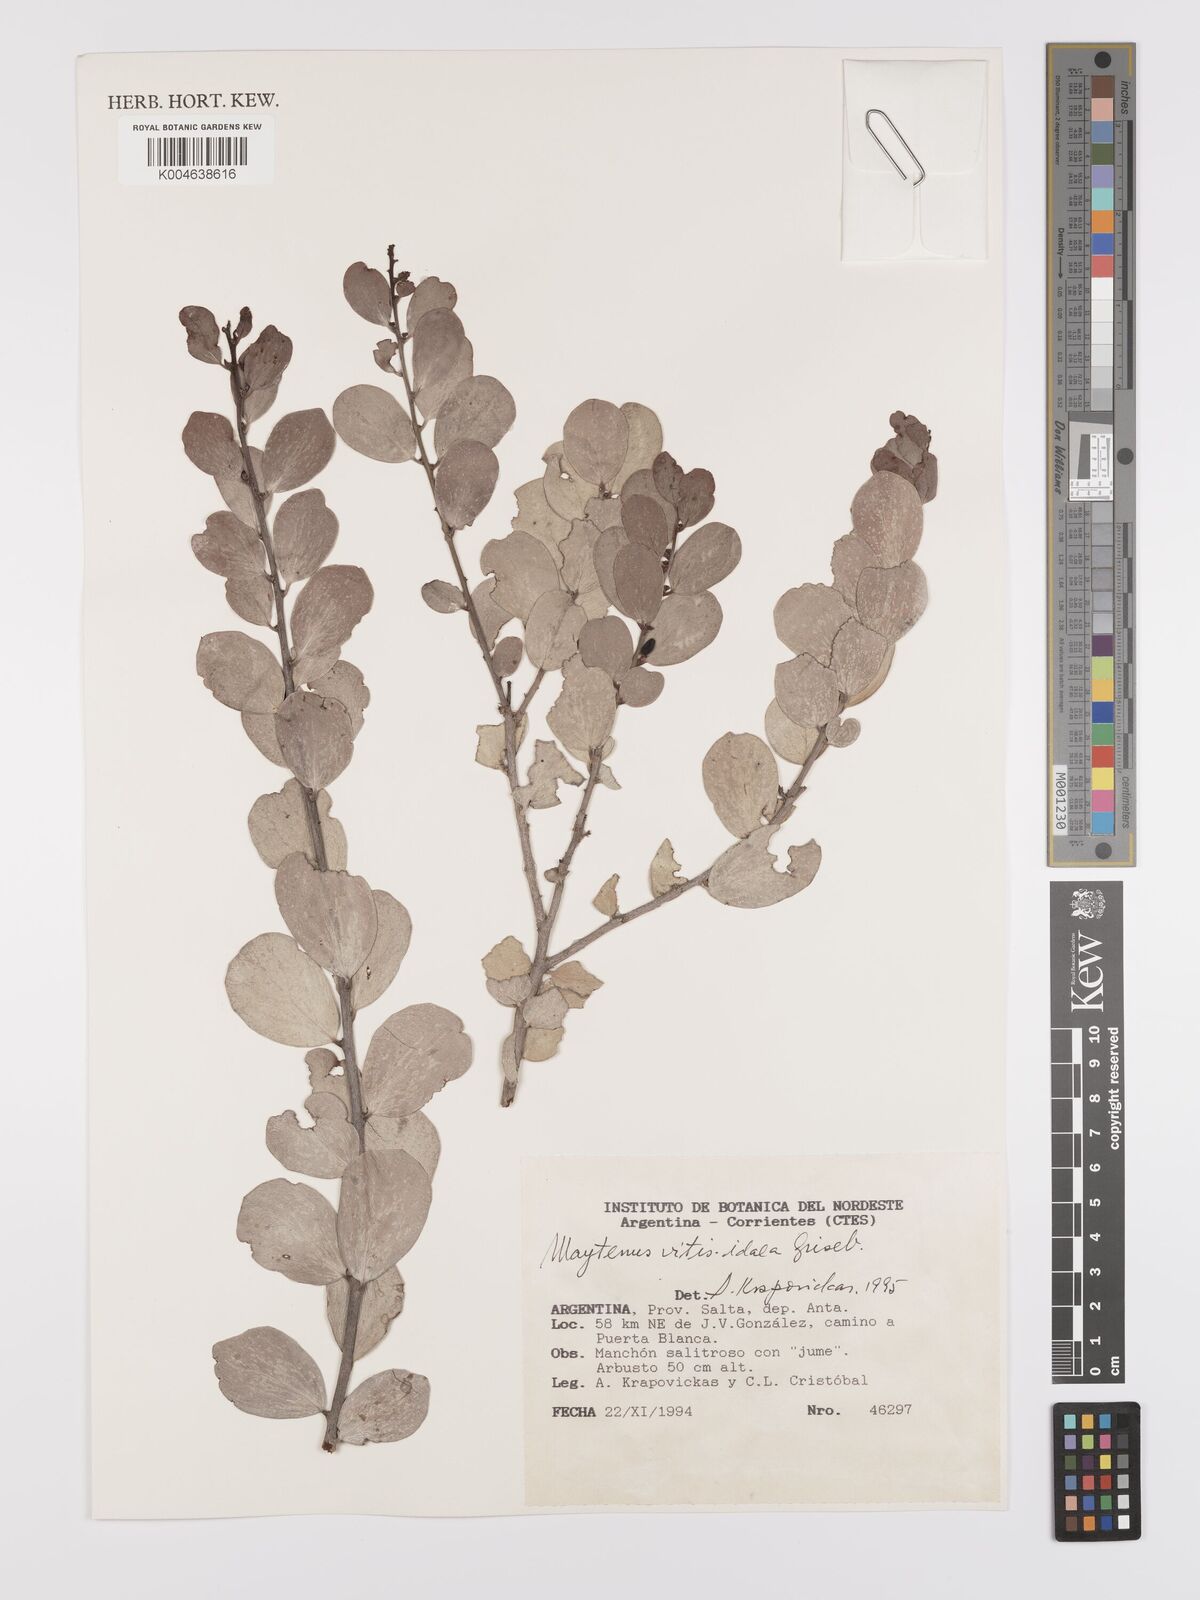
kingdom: Plantae
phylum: Tracheophyta
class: Magnoliopsida
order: Celastrales
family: Celastraceae
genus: Tricerma
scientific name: Tricerma vitis-idaeum
